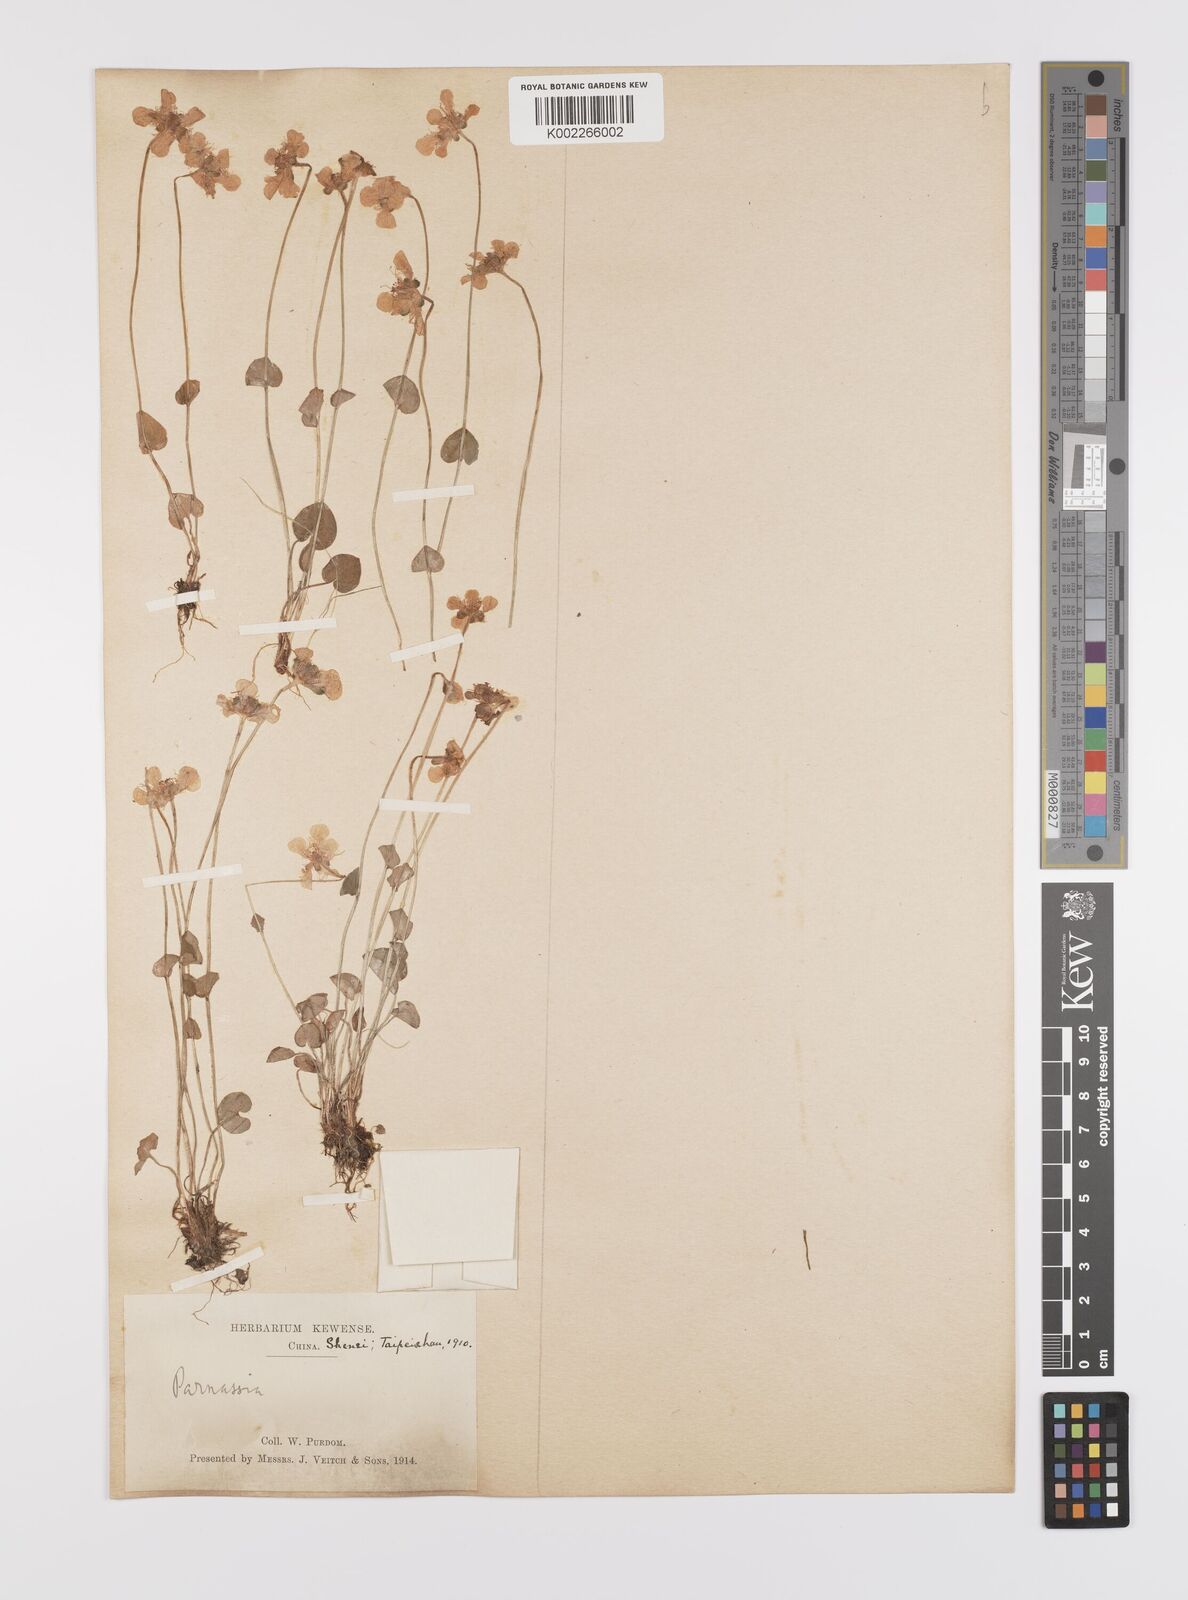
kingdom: Plantae
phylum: Tracheophyta
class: Magnoliopsida
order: Celastrales
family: Parnassiaceae
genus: Parnassia
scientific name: Parnassia wightiana
